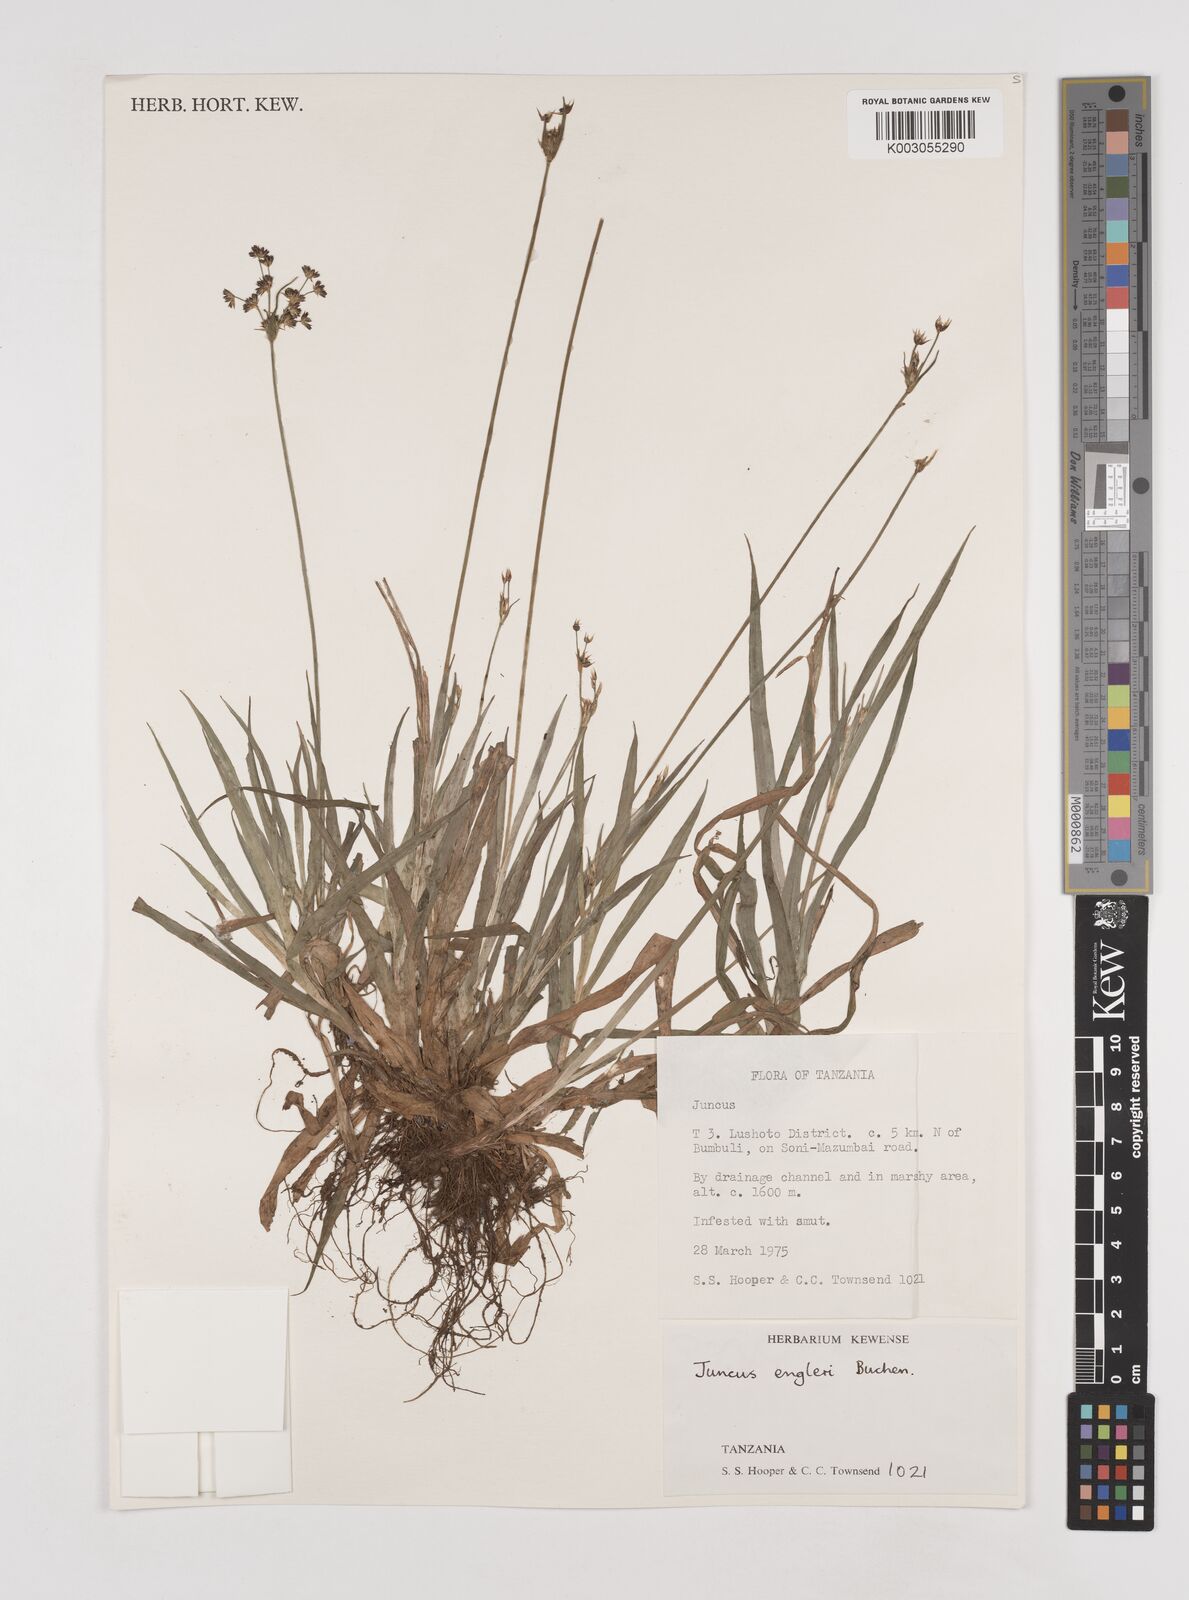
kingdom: Plantae
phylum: Tracheophyta
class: Liliopsida
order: Poales
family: Juncaceae
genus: Juncus
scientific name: Juncus engleri
